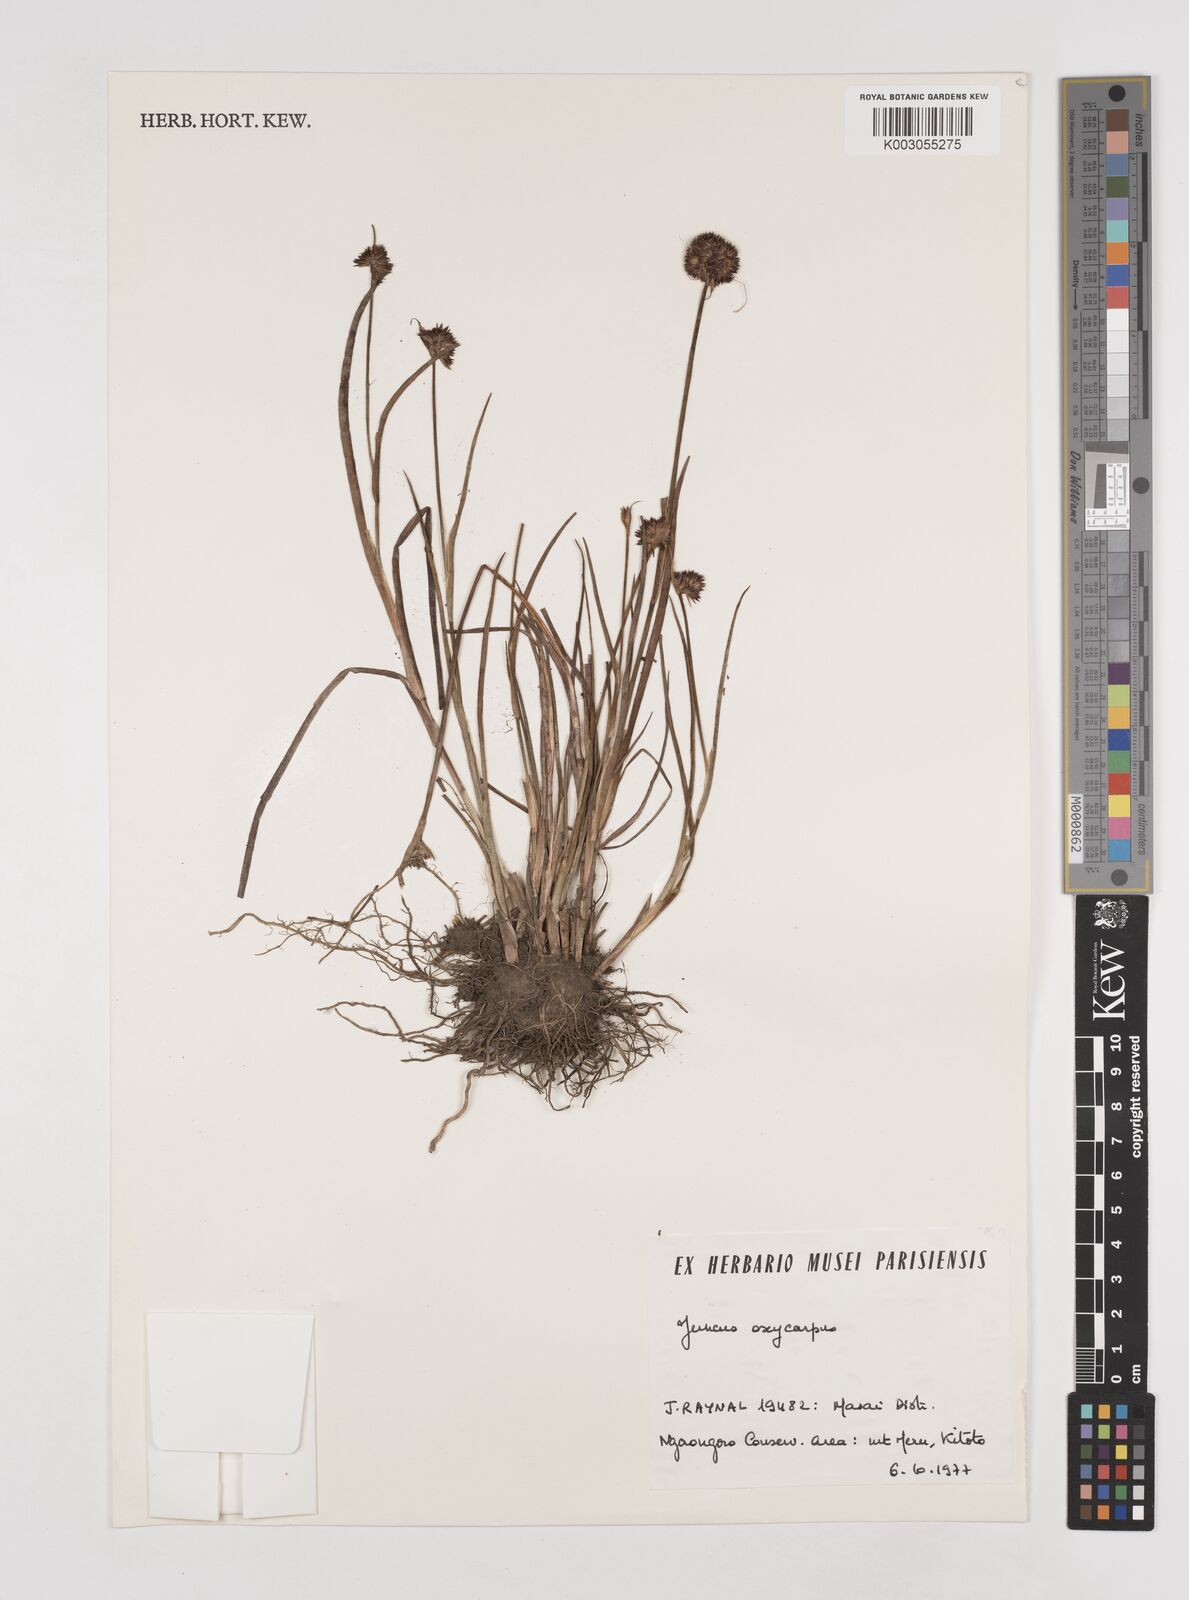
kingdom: Plantae
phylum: Tracheophyta
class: Liliopsida
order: Poales
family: Juncaceae
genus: Juncus
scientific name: Juncus oxycarpus
